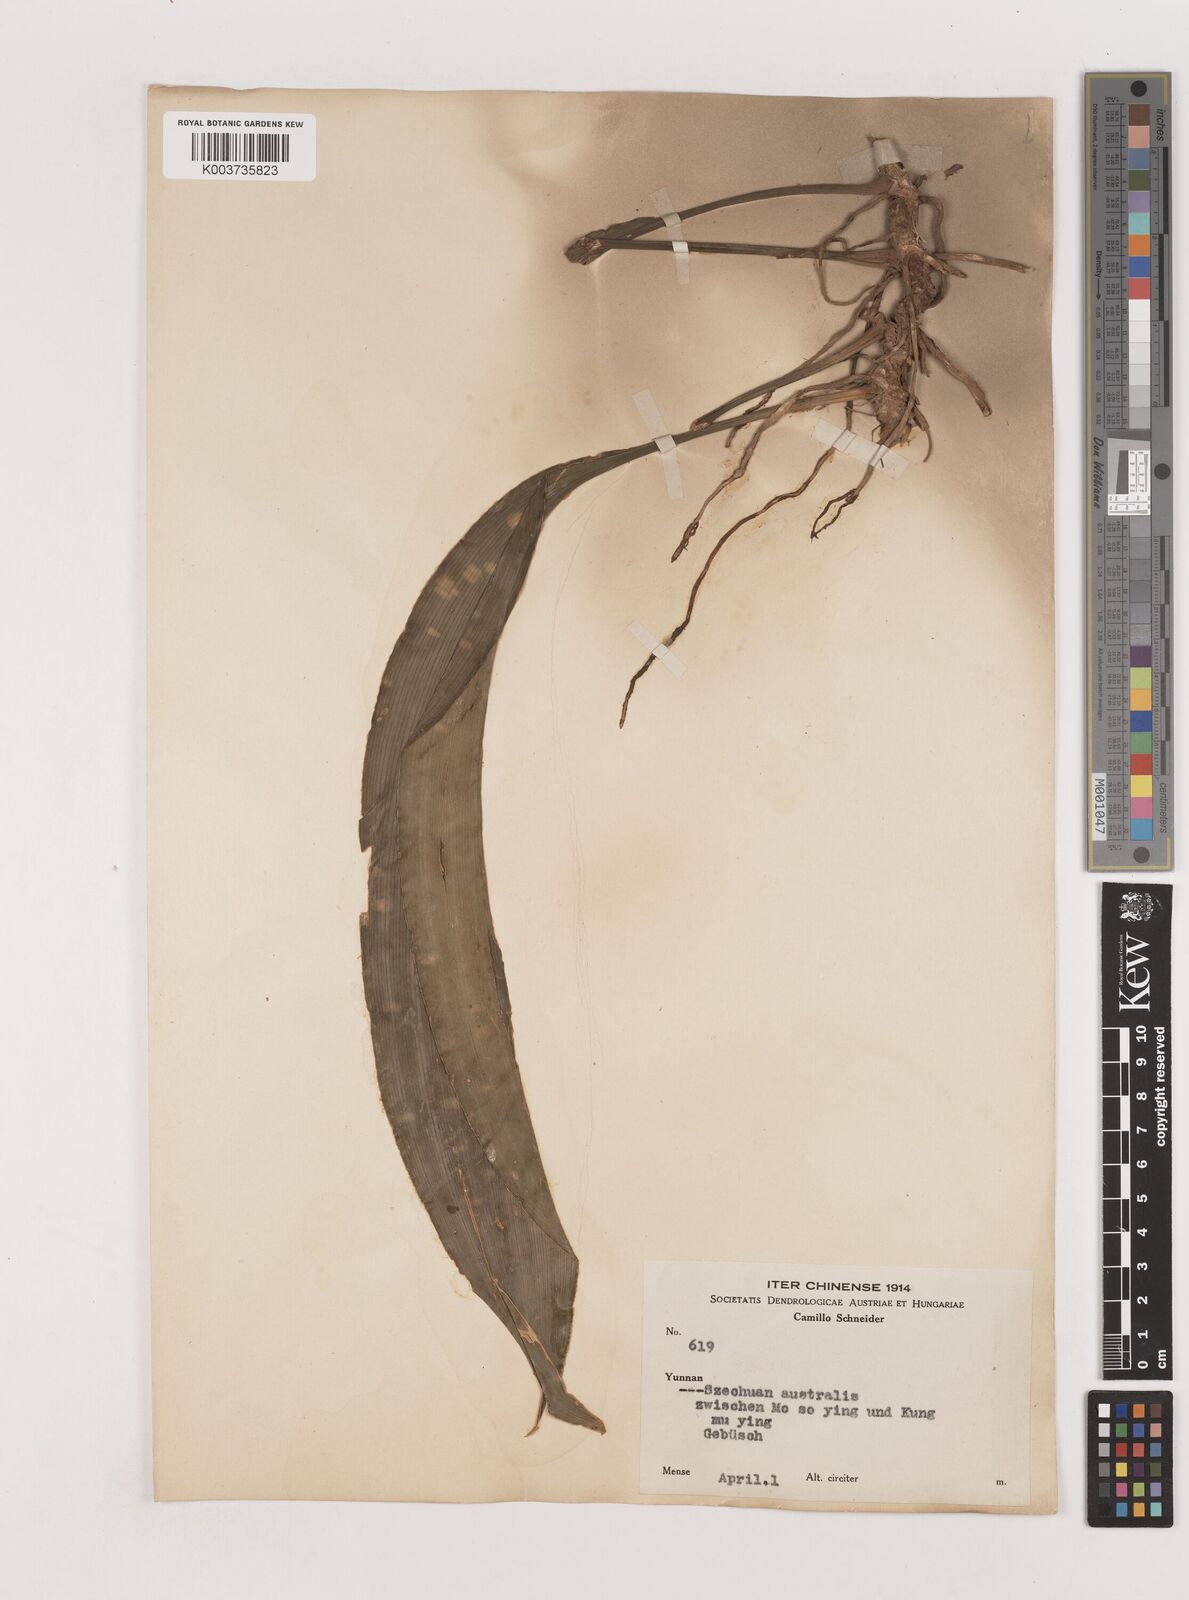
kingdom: Plantae
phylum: Tracheophyta
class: Liliopsida
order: Asparagales
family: Asparagaceae
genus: Aspidistra
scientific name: Aspidistra
